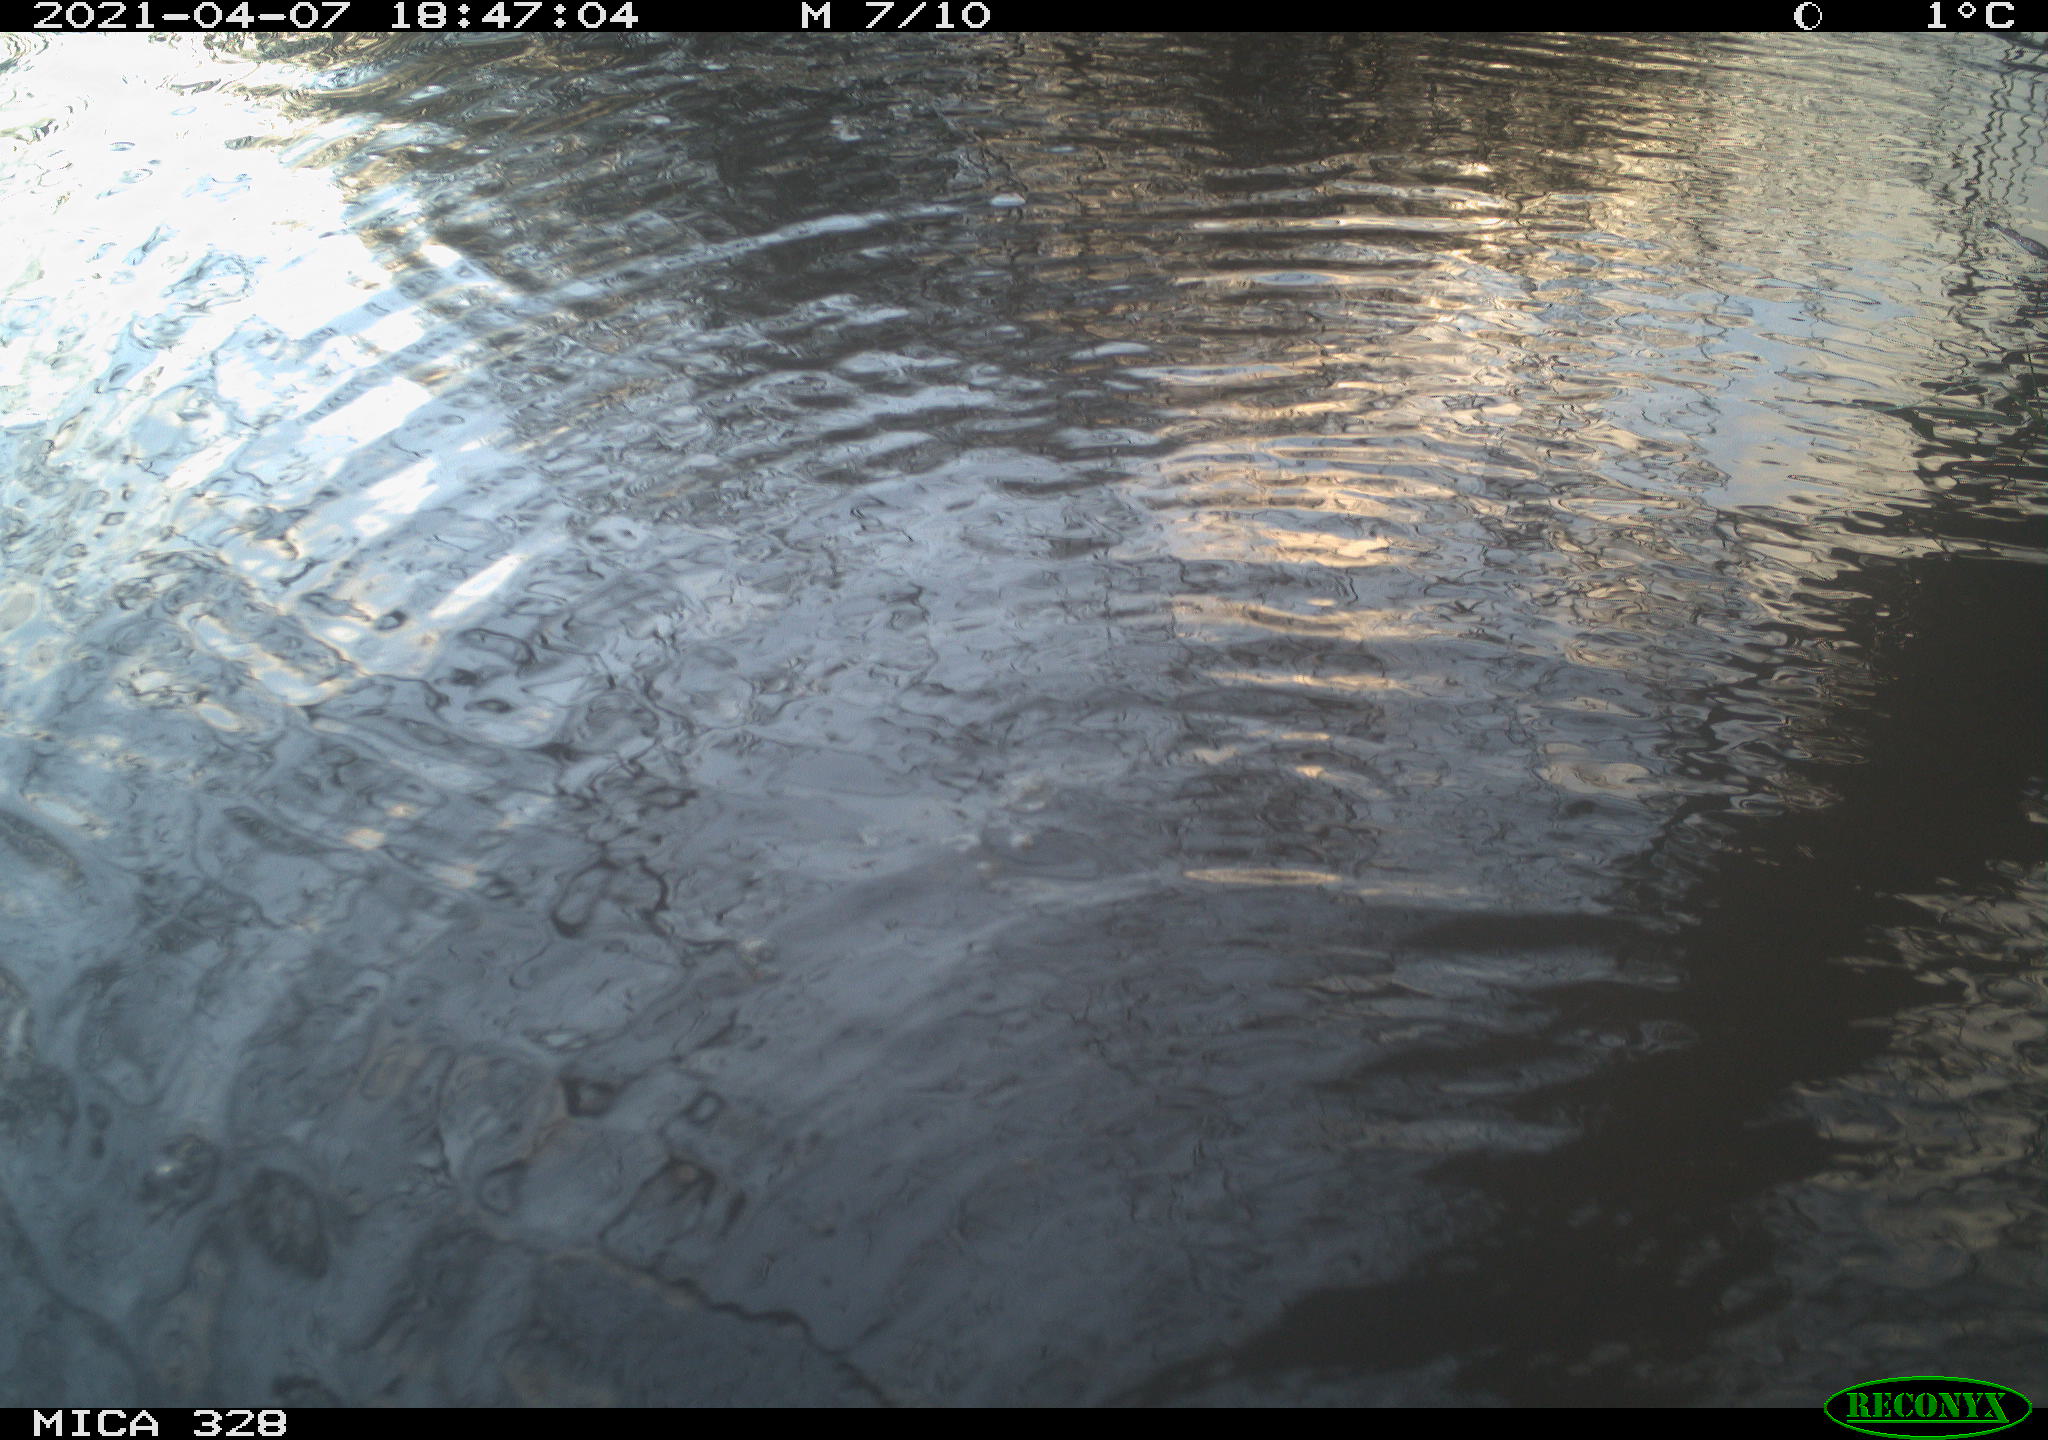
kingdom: Animalia
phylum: Chordata
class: Mammalia
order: Rodentia
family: Cricetidae
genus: Ondatra
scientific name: Ondatra zibethicus
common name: Muskrat
